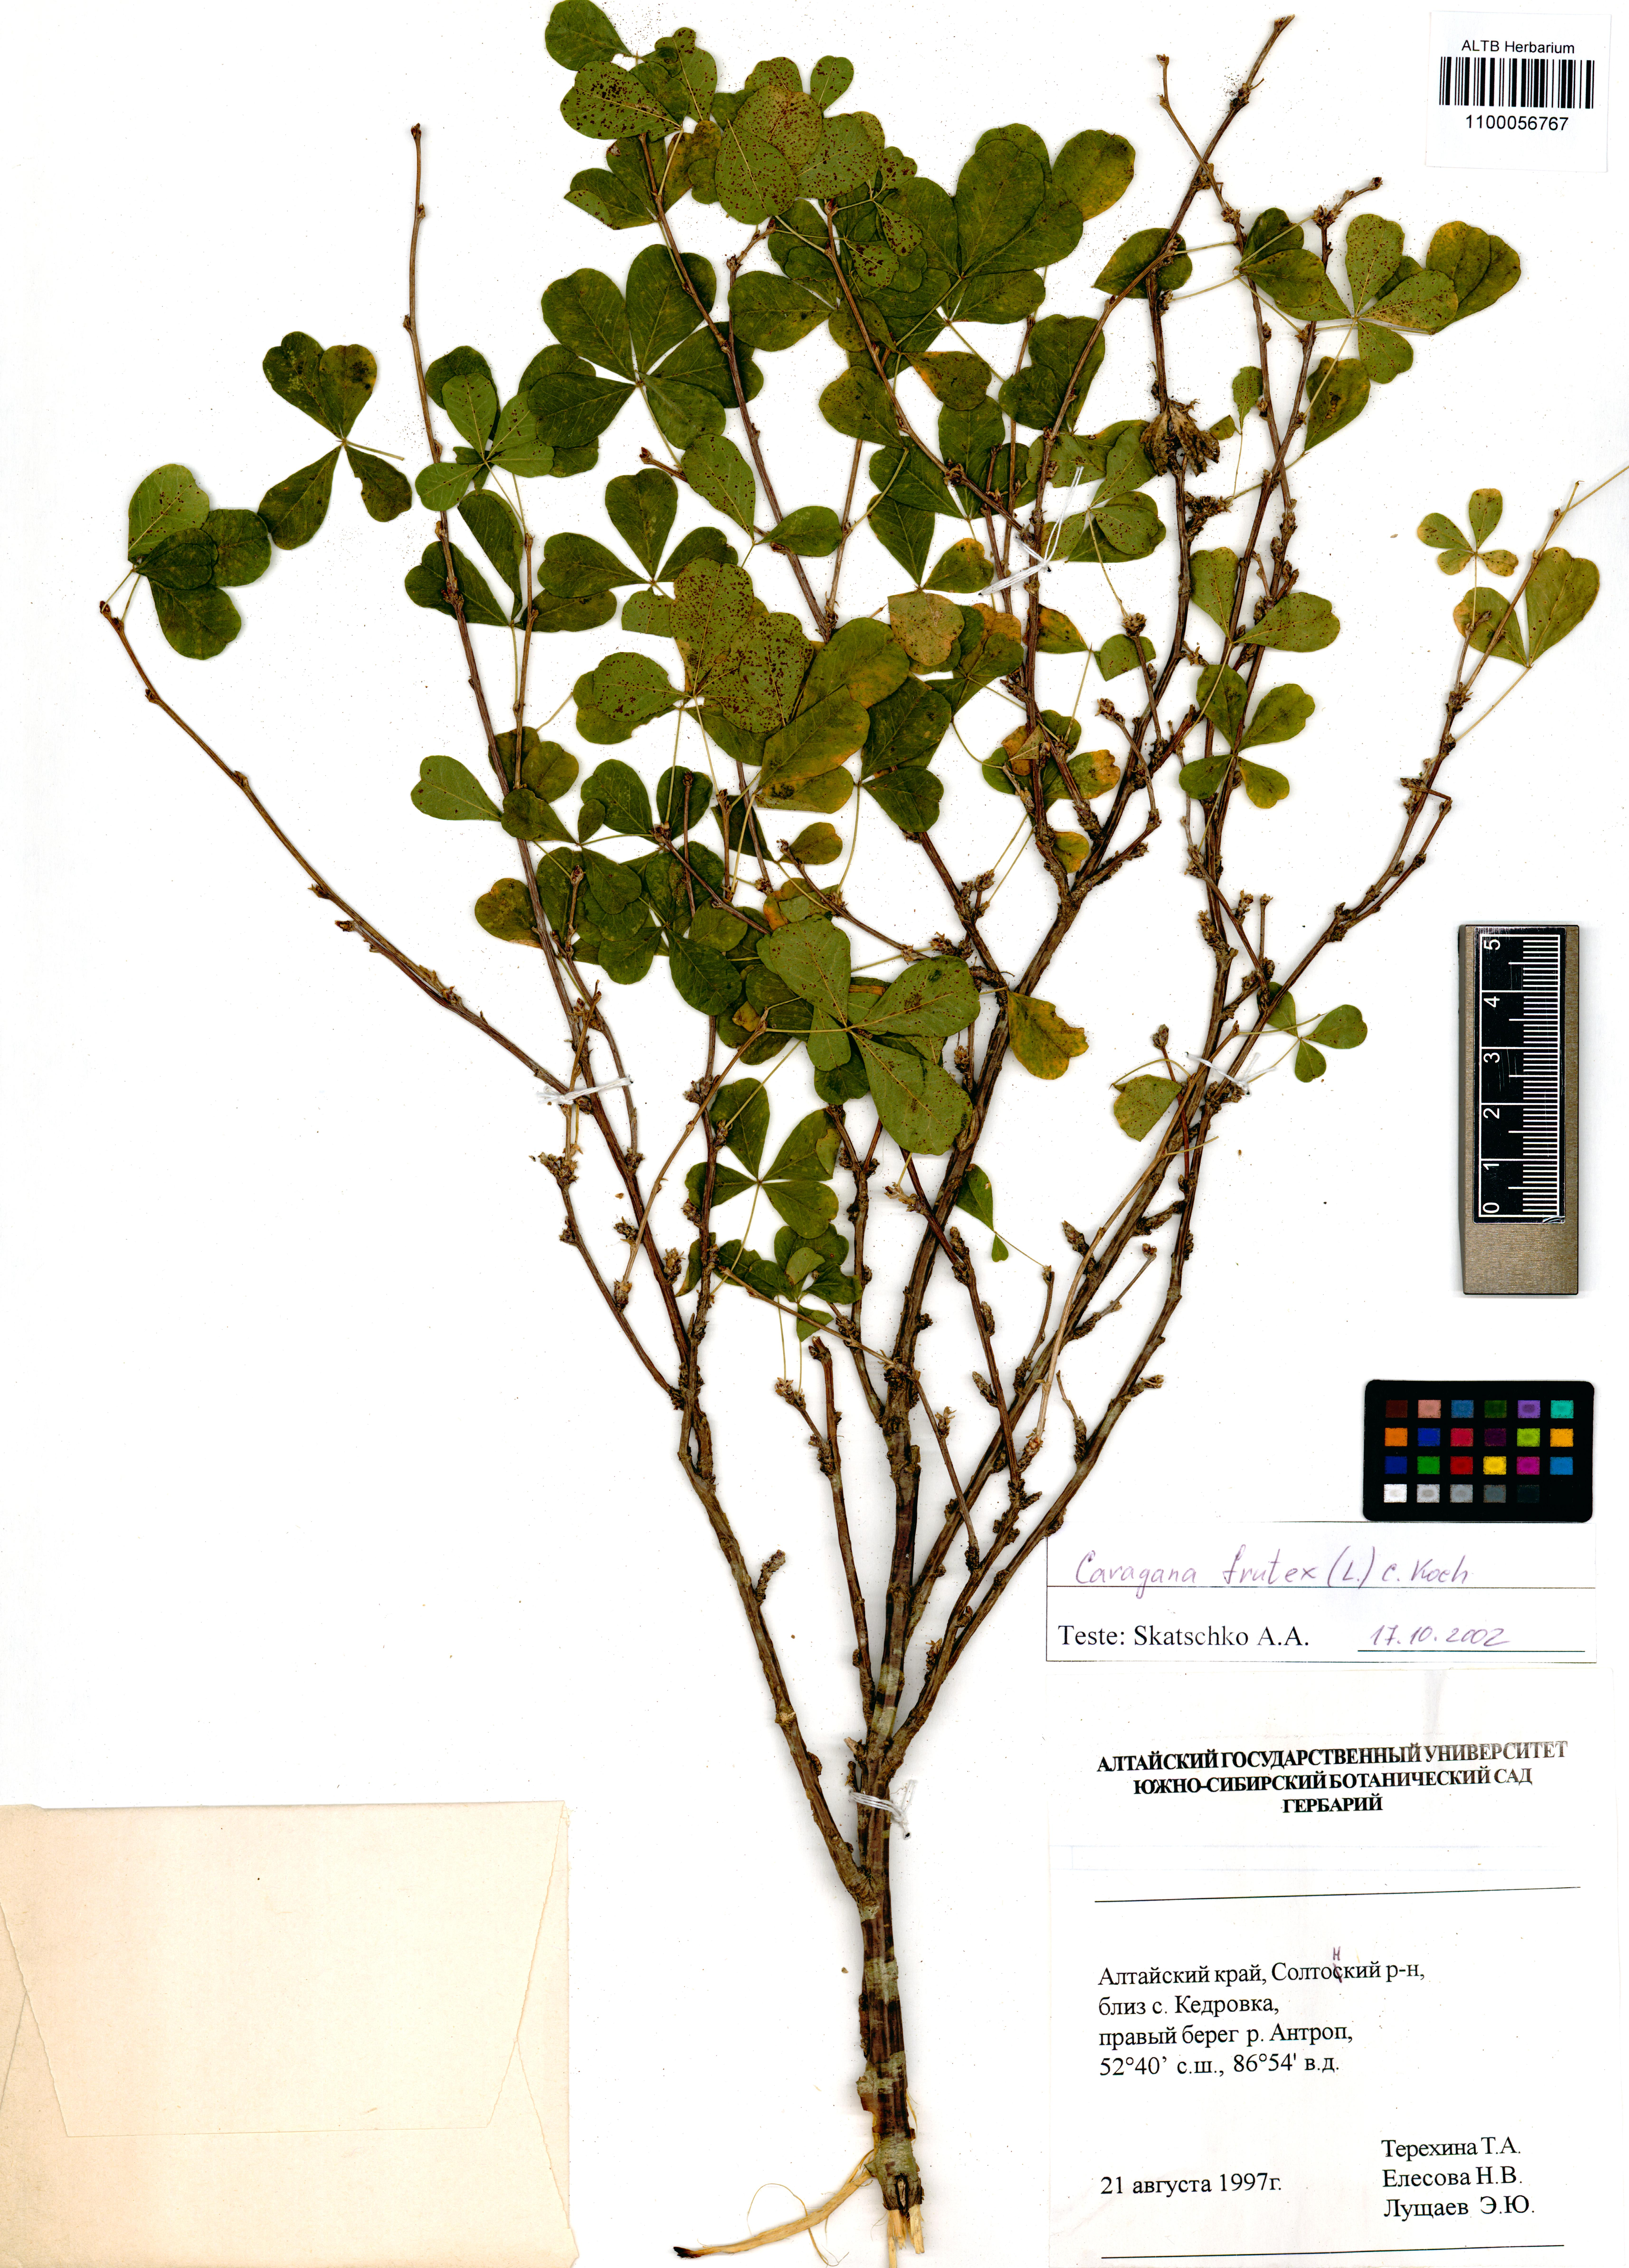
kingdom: Plantae
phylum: Tracheophyta
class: Magnoliopsida
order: Fabales
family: Fabaceae
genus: Caragana
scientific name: Caragana frutex
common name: Russian peashrub
